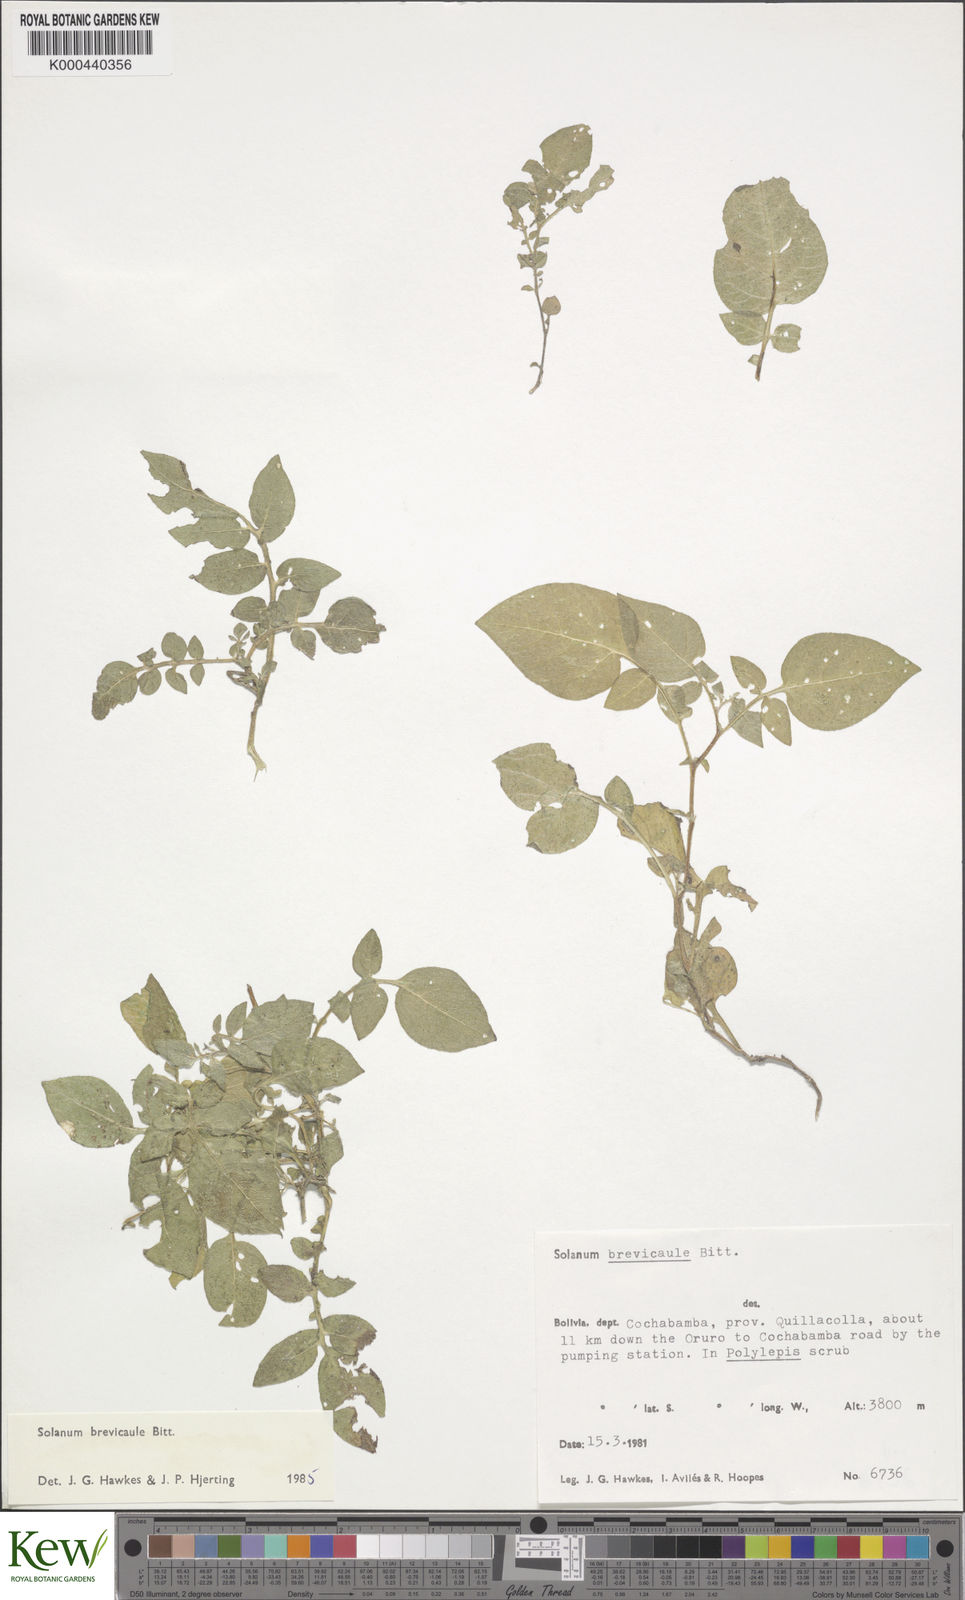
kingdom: Plantae
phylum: Tracheophyta
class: Magnoliopsida
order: Solanales
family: Solanaceae
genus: Solanum
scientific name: Solanum brevicaule
